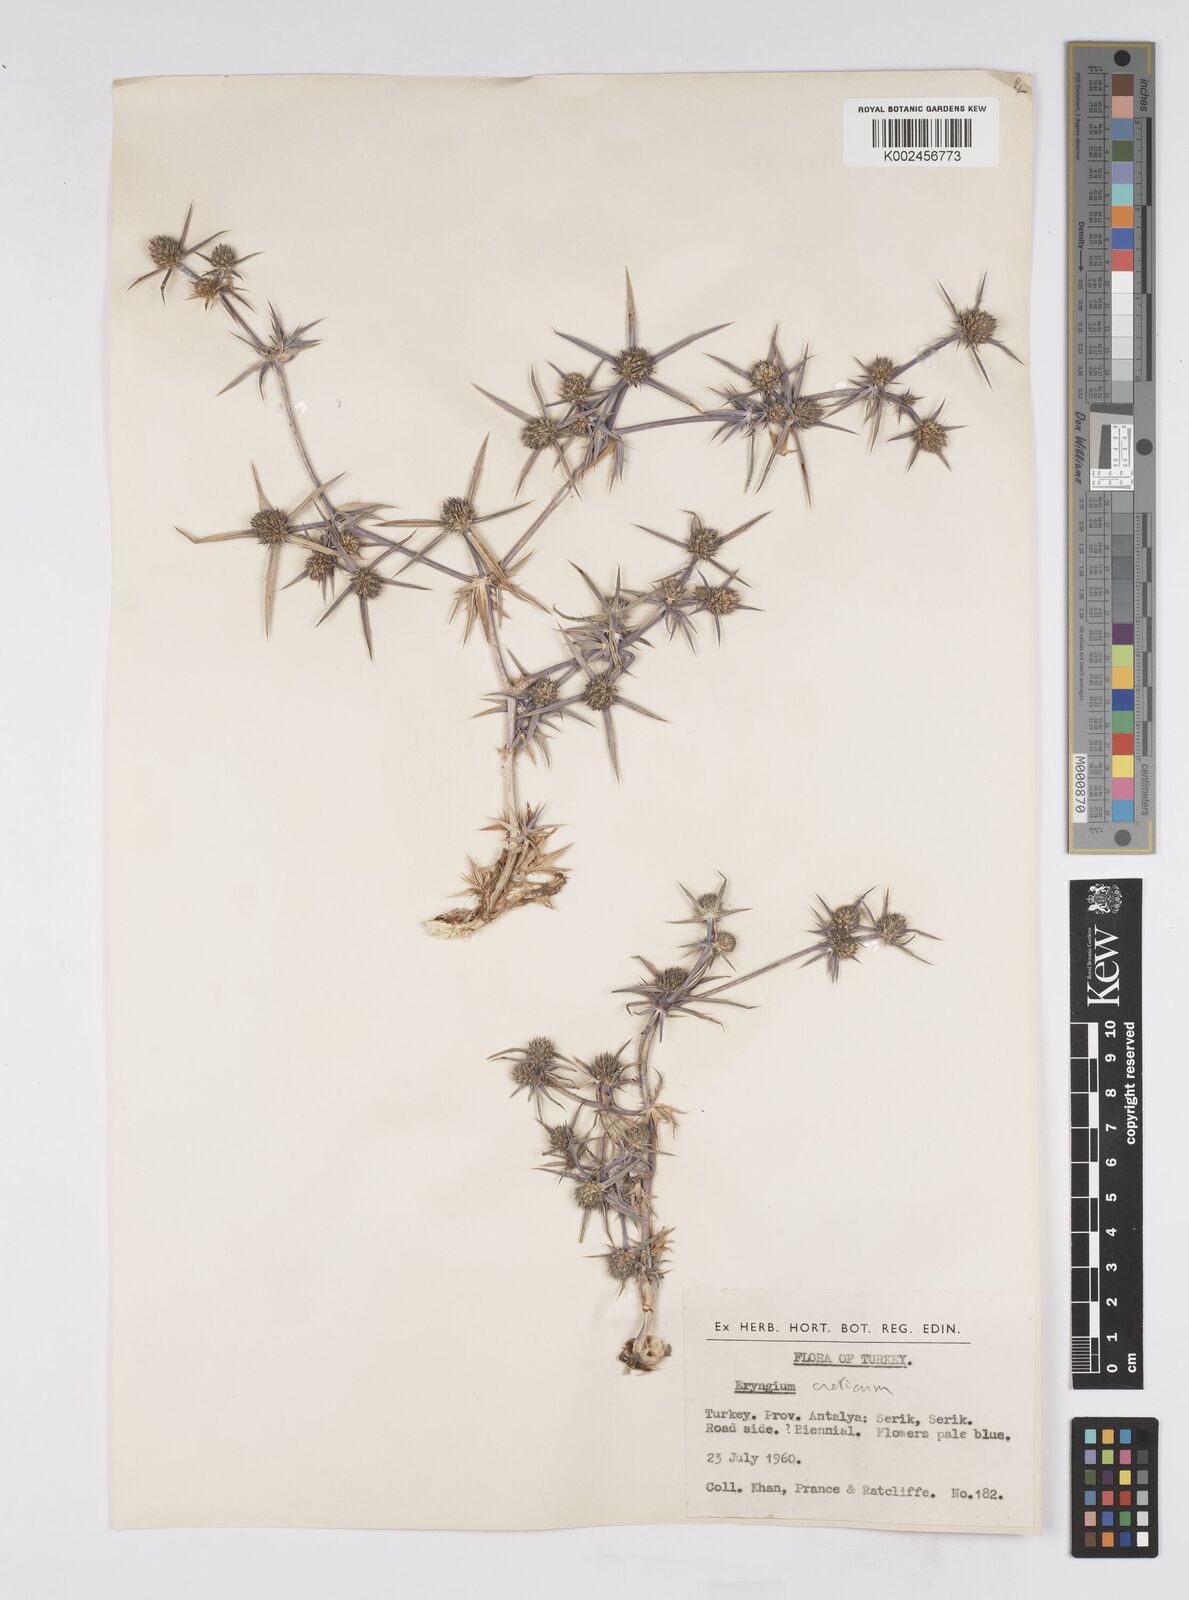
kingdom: Plantae
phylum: Tracheophyta
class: Magnoliopsida
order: Apiales
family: Apiaceae
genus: Eryngium
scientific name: Eryngium creticum
